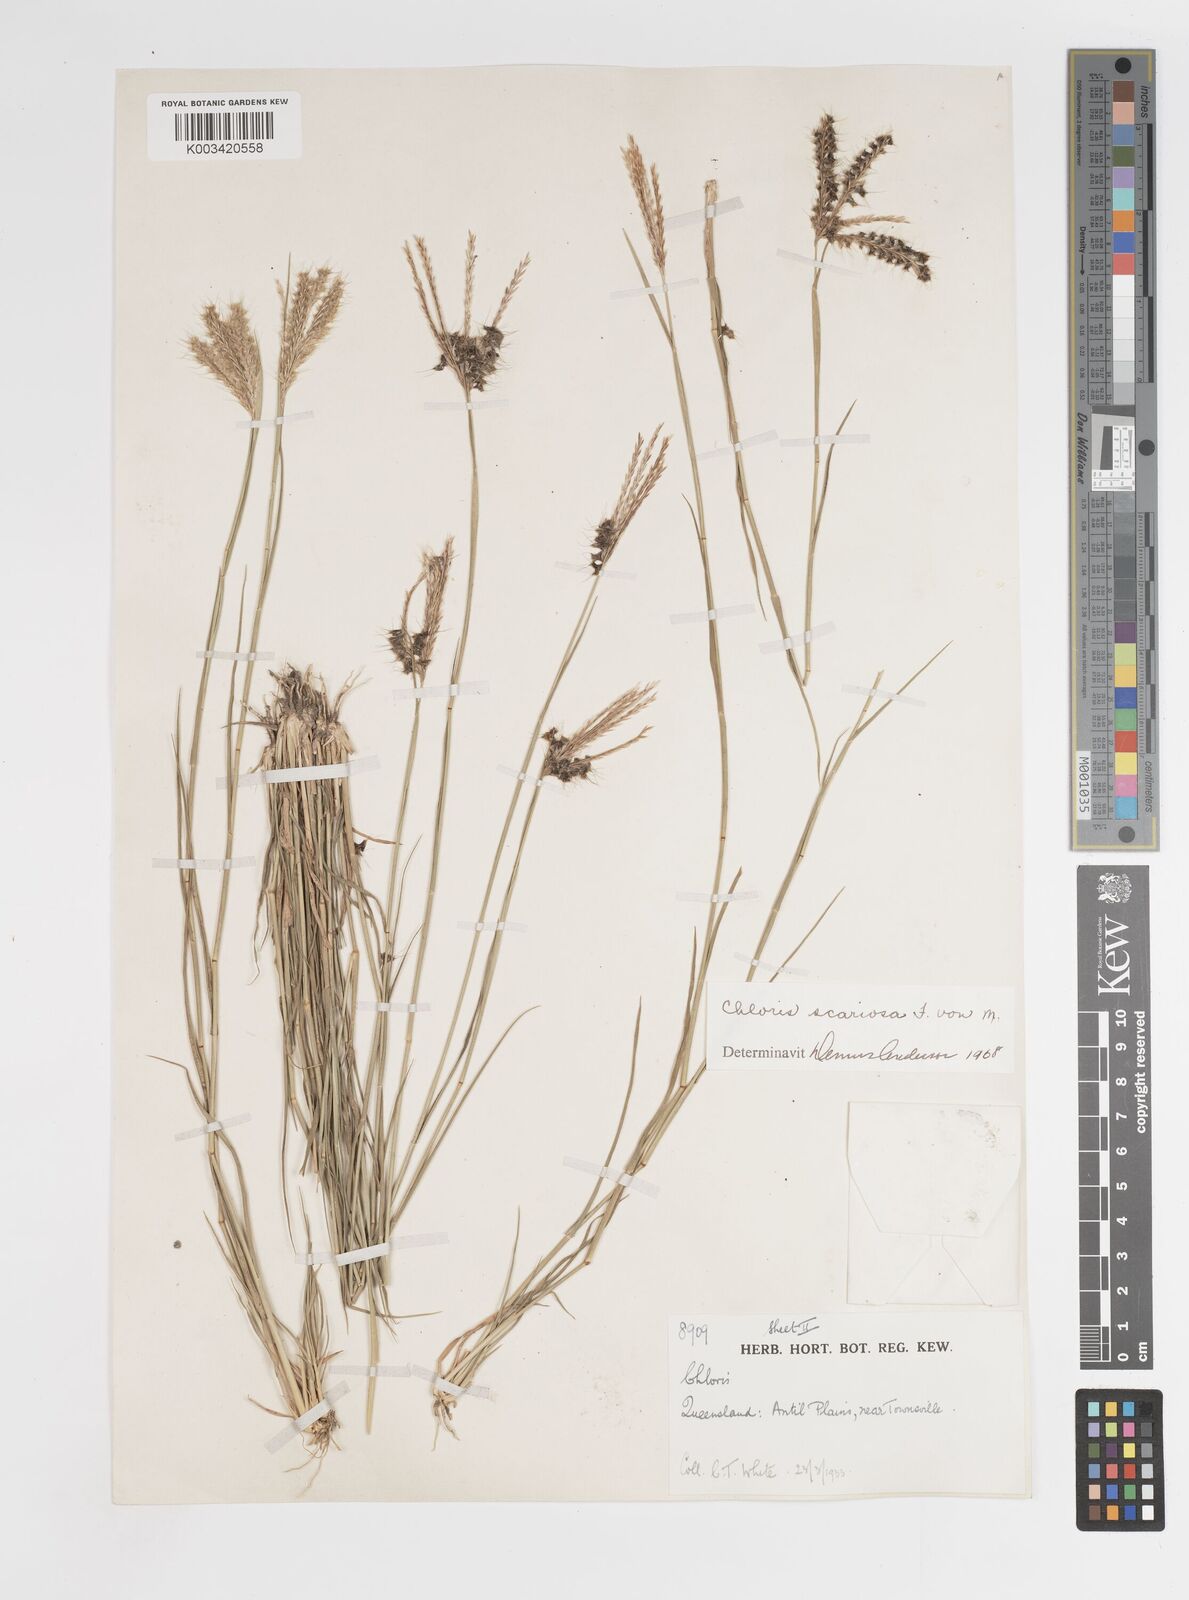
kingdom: Plantae
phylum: Tracheophyta
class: Liliopsida
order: Poales
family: Poaceae
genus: Oxychloris
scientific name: Oxychloris scariosa
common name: Winged windmill grass
